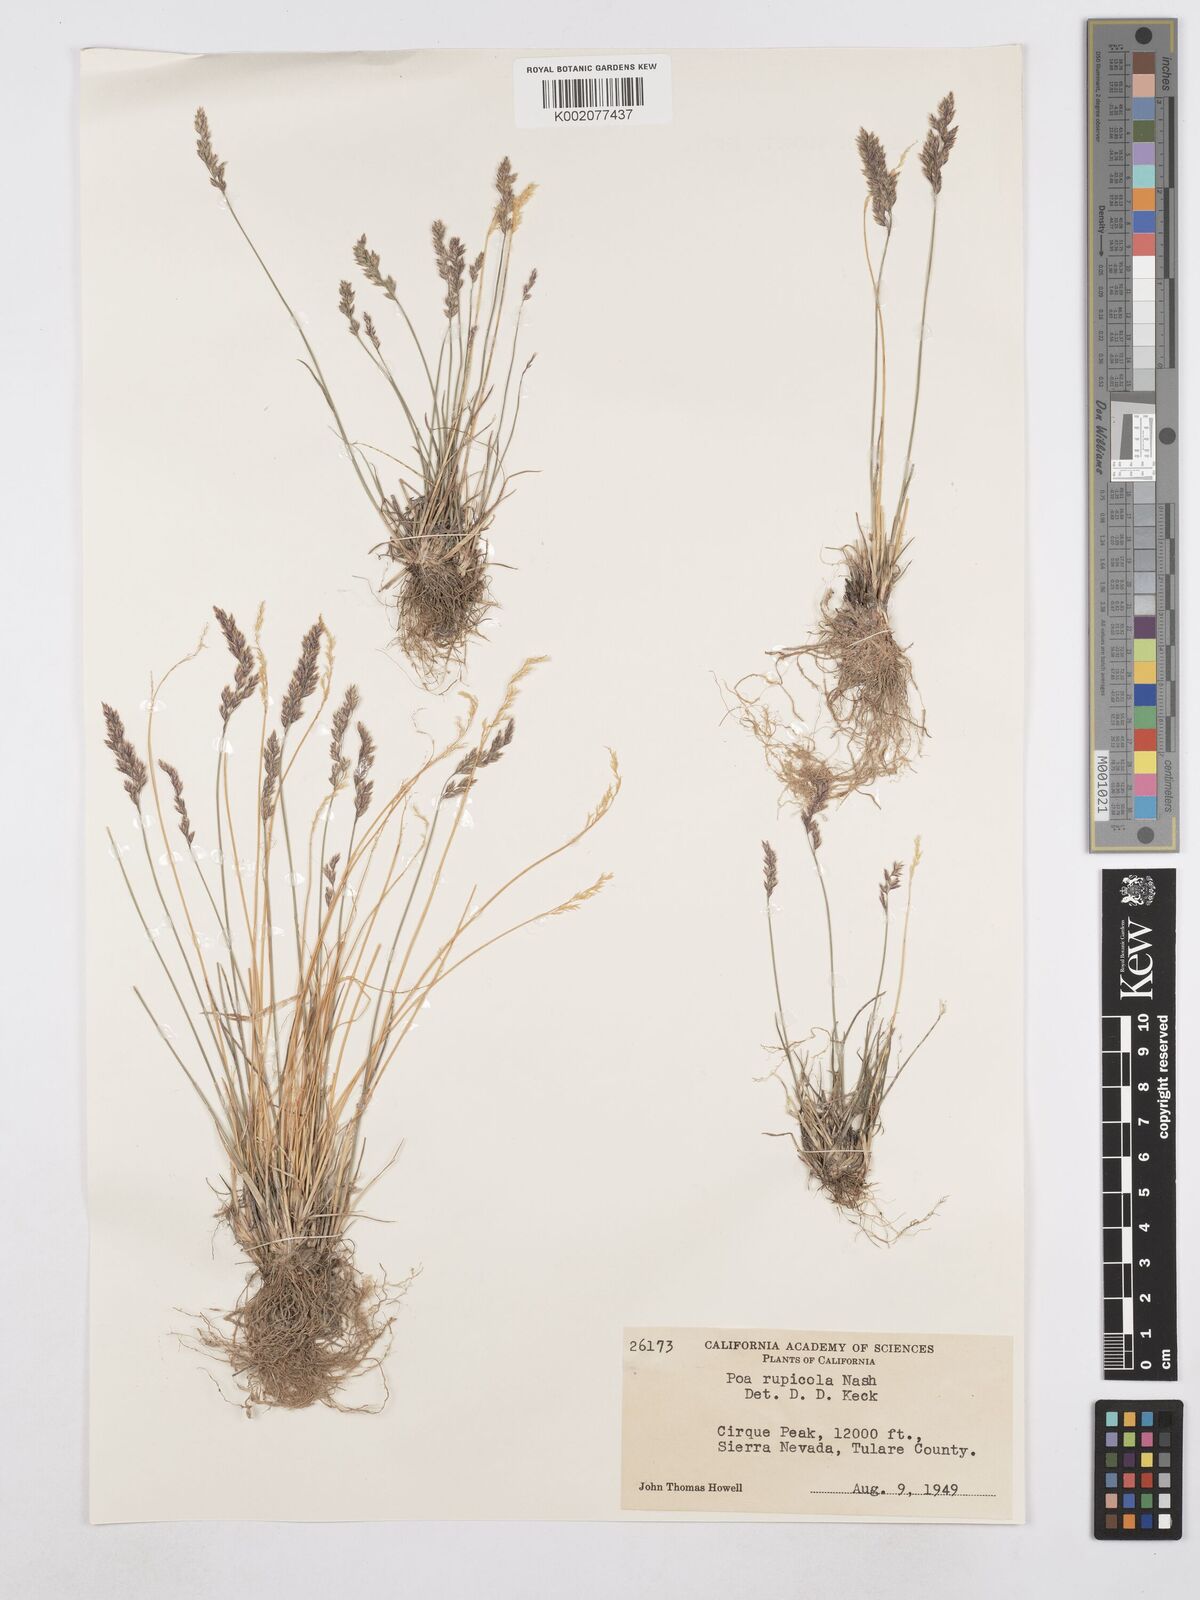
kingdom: Plantae
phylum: Tracheophyta
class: Liliopsida
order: Poales
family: Poaceae
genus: Poa
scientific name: Poa glauca
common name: Glaucous bluegrass
